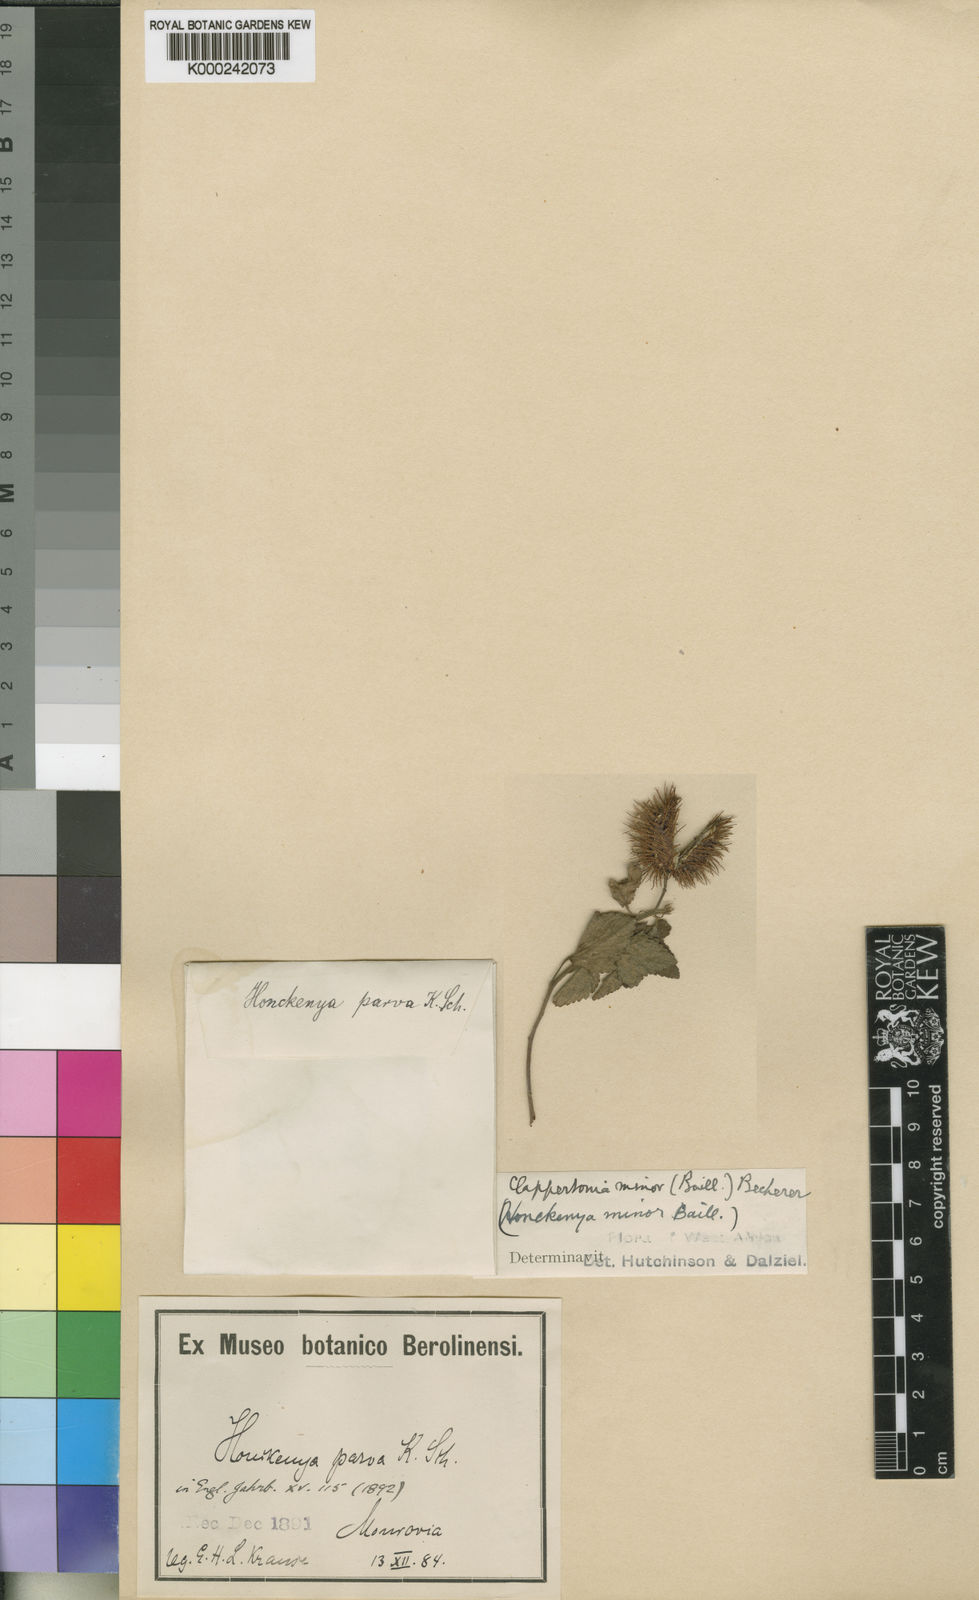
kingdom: Plantae
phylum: Tracheophyta
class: Magnoliopsida
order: Malvales
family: Malvaceae
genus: Clappertonia
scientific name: Clappertonia minor
